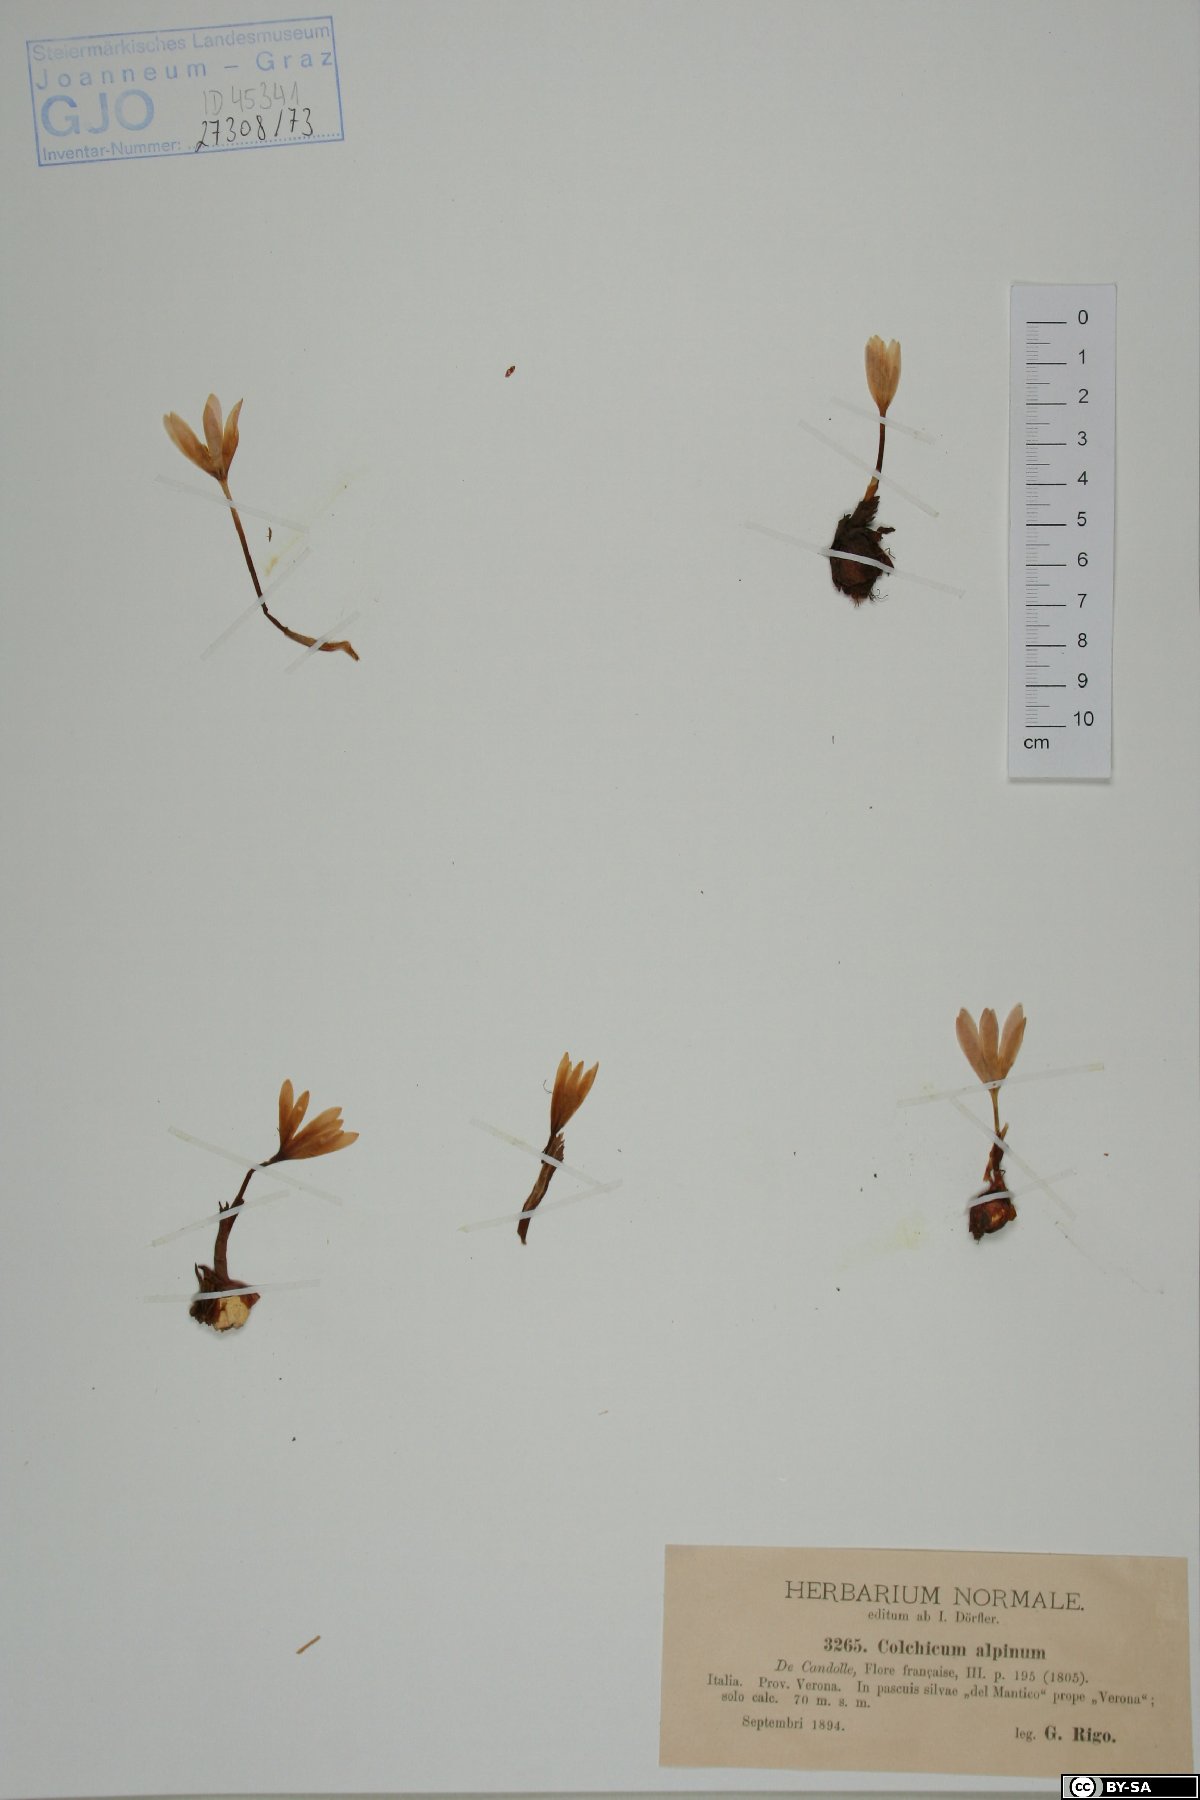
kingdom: Plantae
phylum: Tracheophyta
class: Liliopsida
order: Liliales
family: Colchicaceae
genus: Colchicum
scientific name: Colchicum alpinum
